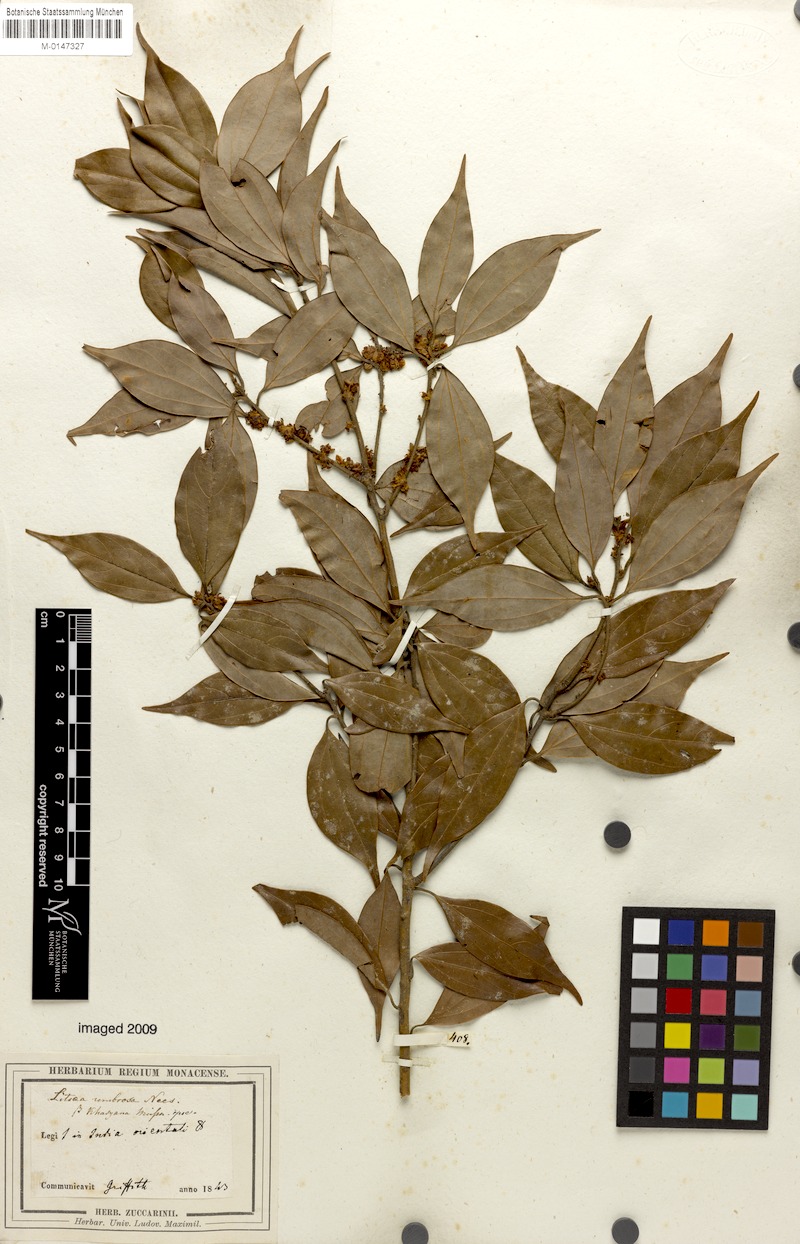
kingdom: Plantae
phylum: Tracheophyta
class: Magnoliopsida
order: Laurales
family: Lauraceae
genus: Neolitsea
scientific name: Neolitsea umbrosa
